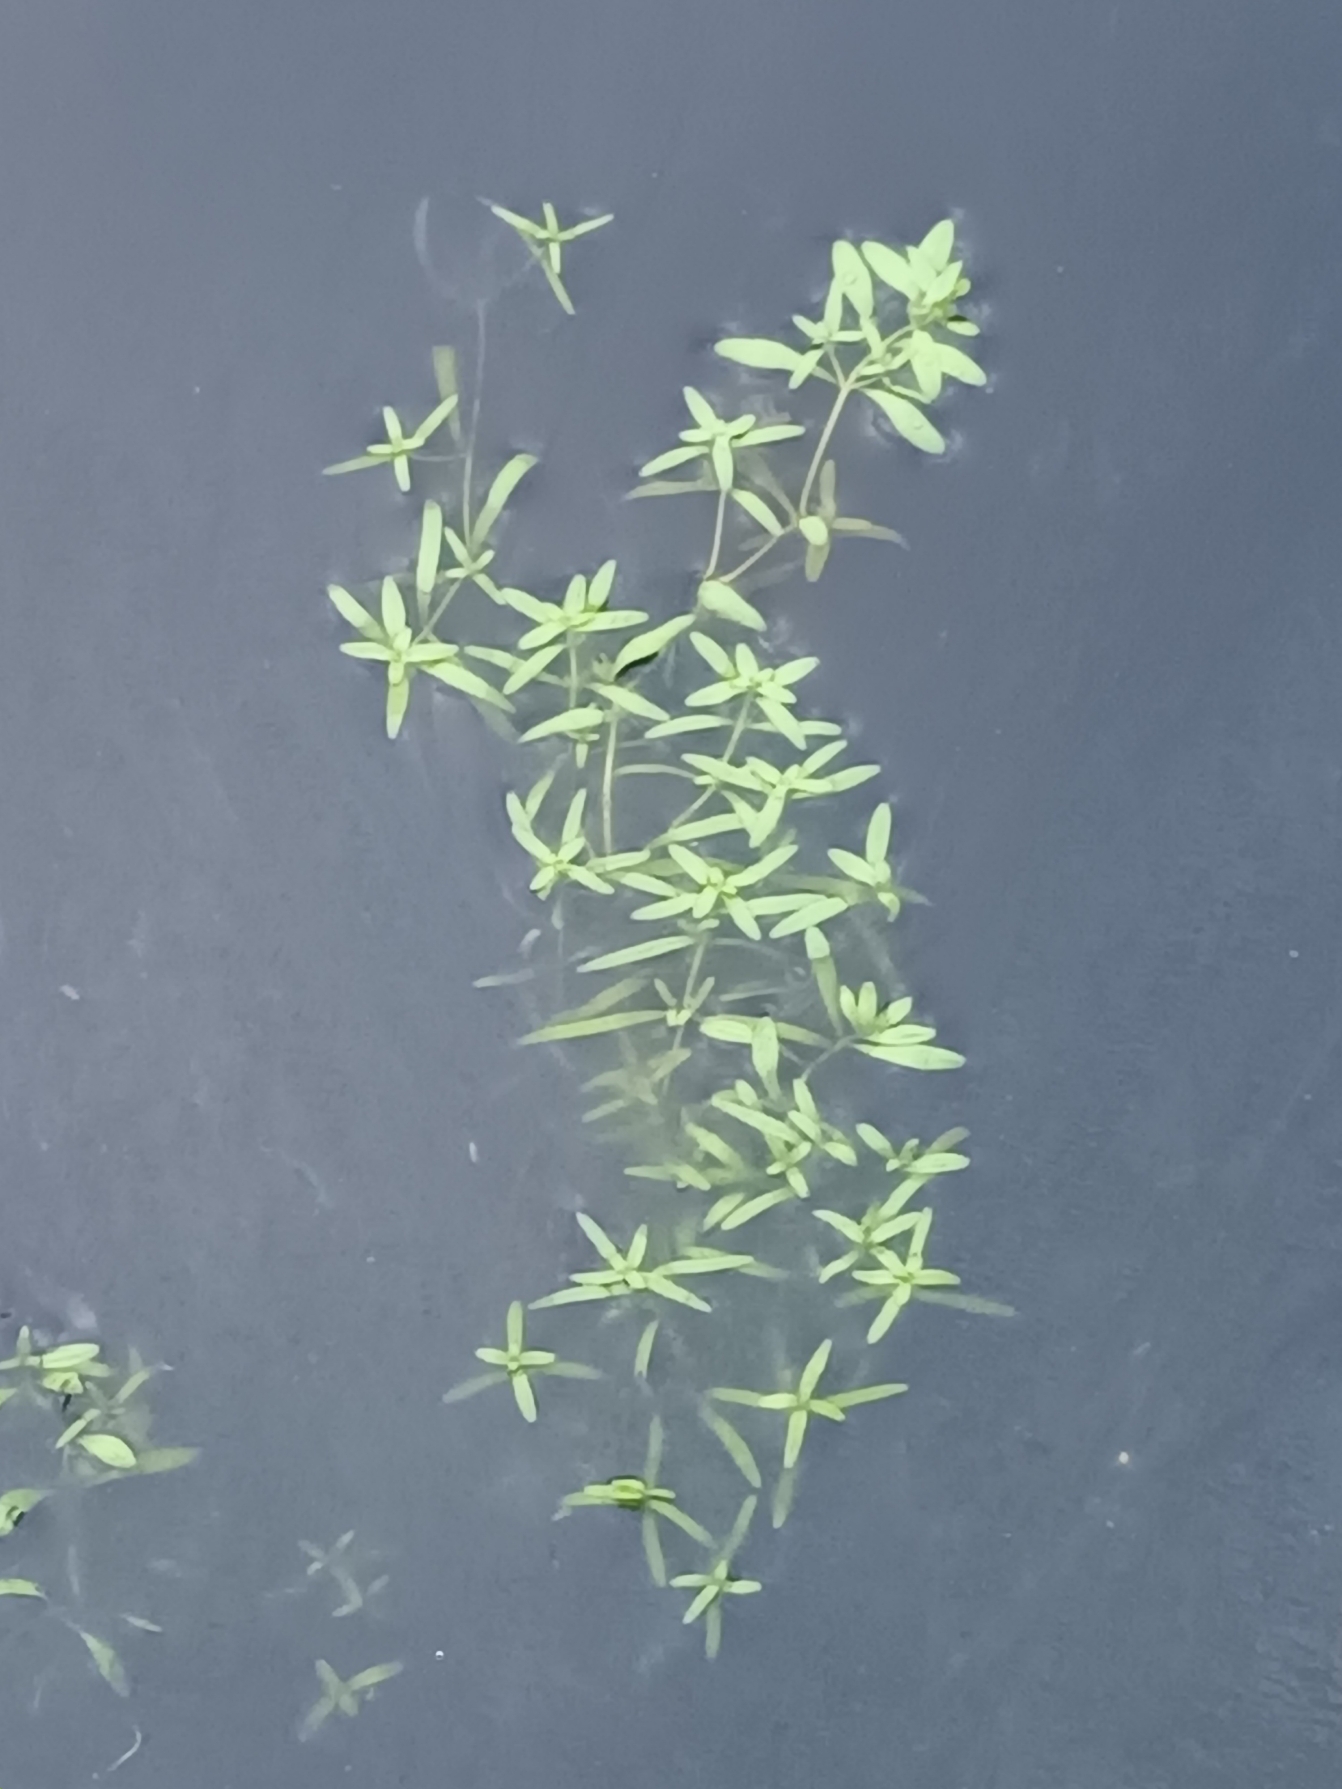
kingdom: Plantae
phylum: Tracheophyta
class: Magnoliopsida
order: Lamiales
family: Plantaginaceae
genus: Callitriche
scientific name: Callitriche cophocarpa
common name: Roset-vandstjerne
